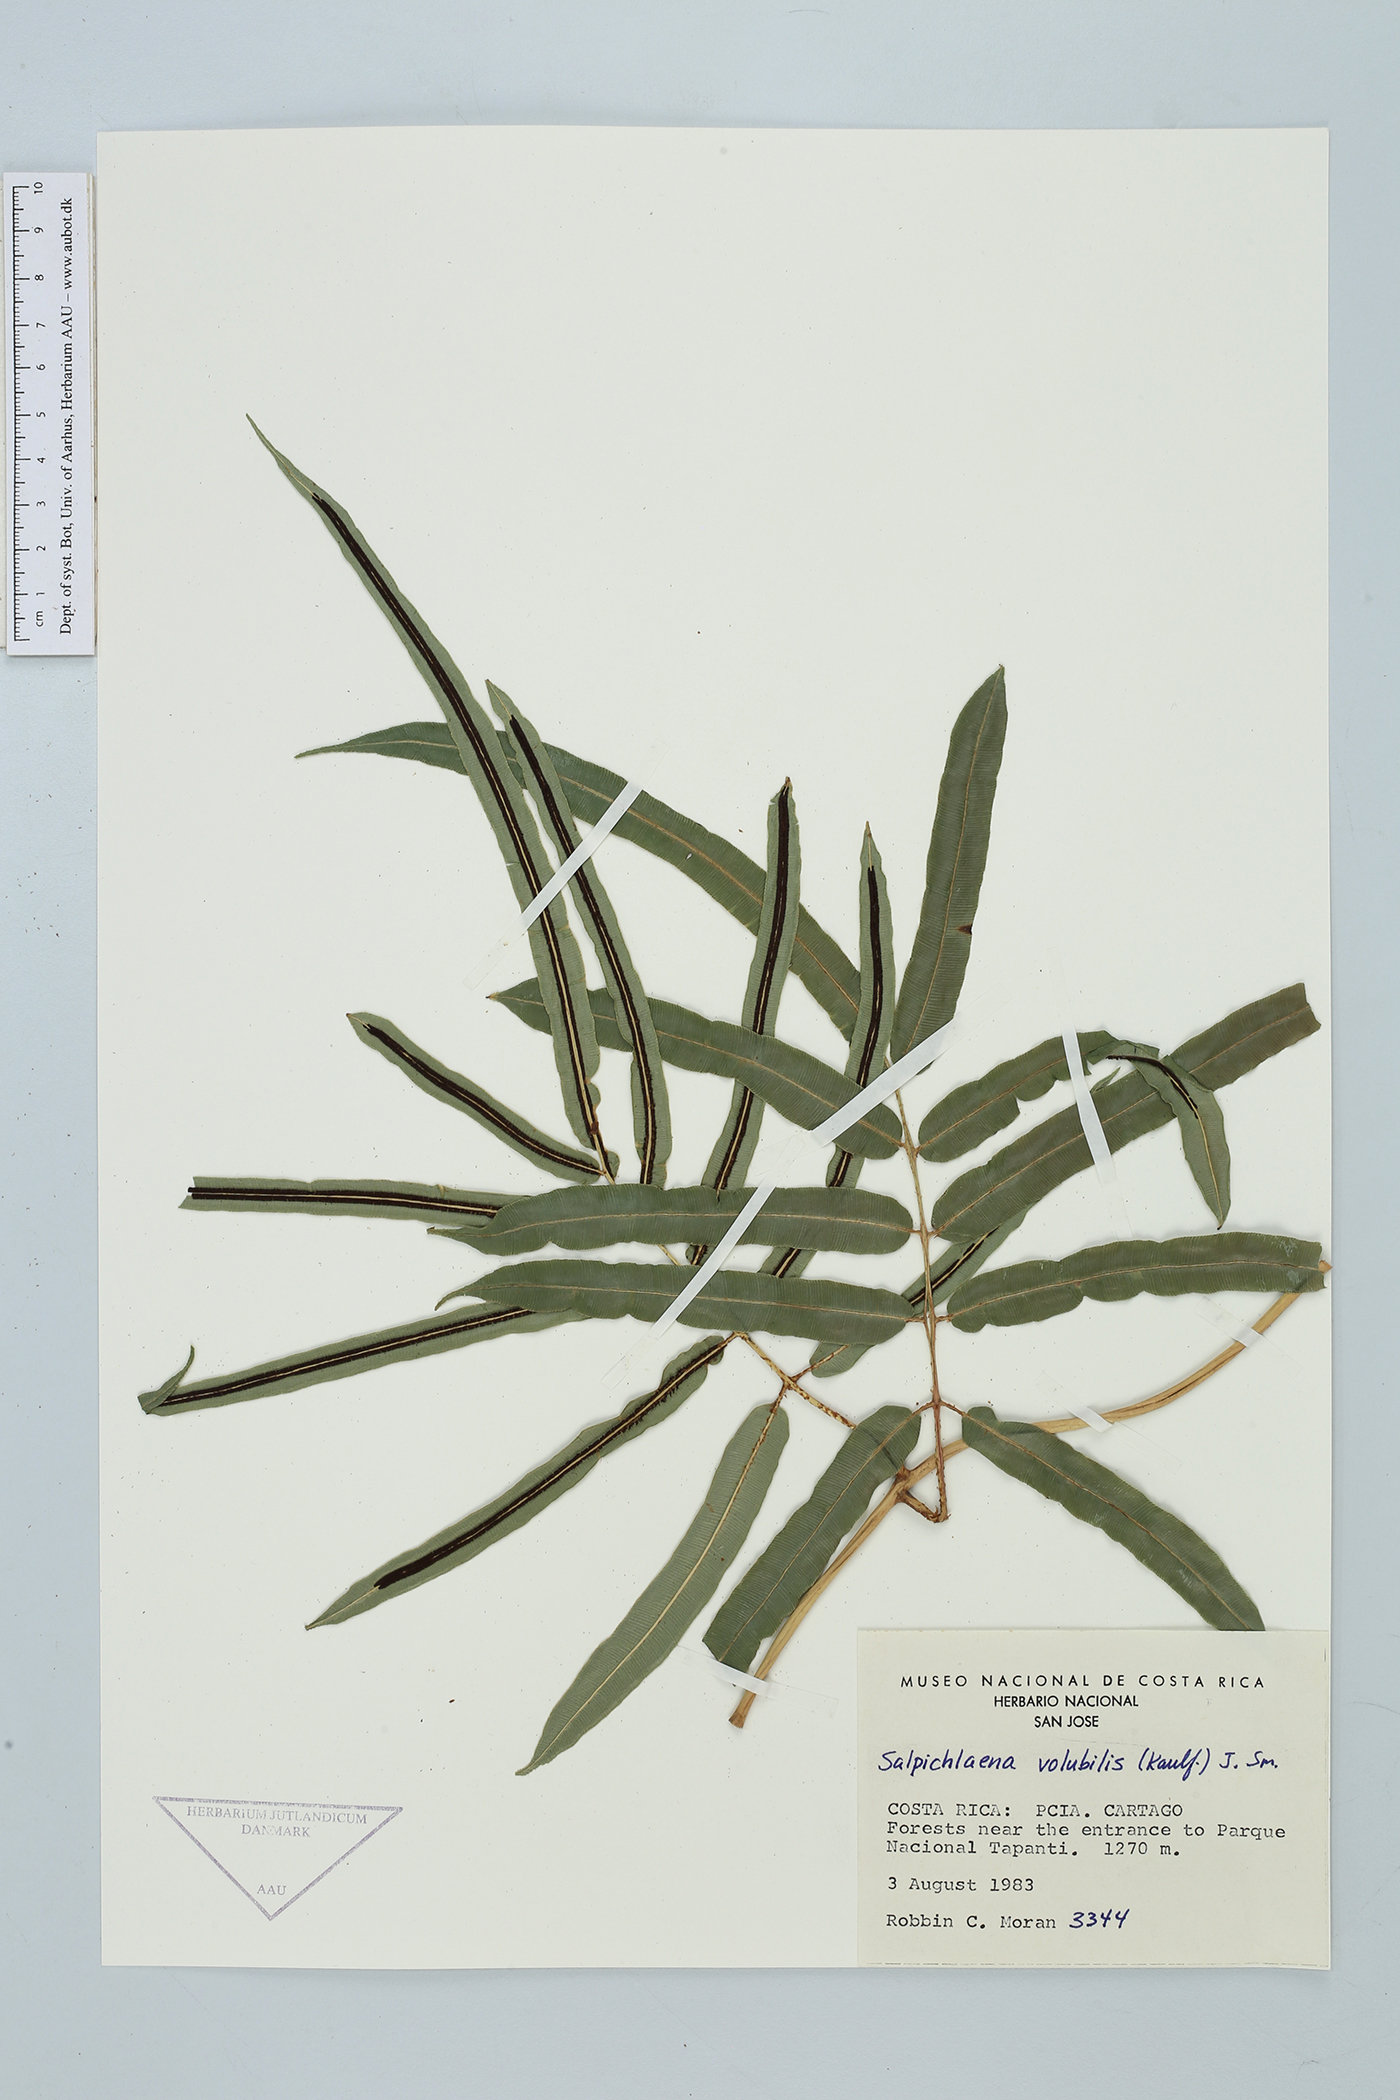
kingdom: Plantae
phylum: Tracheophyta
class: Polypodiopsida
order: Polypodiales
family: Blechnaceae
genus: Salpichlaena
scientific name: Salpichlaena volubilis
